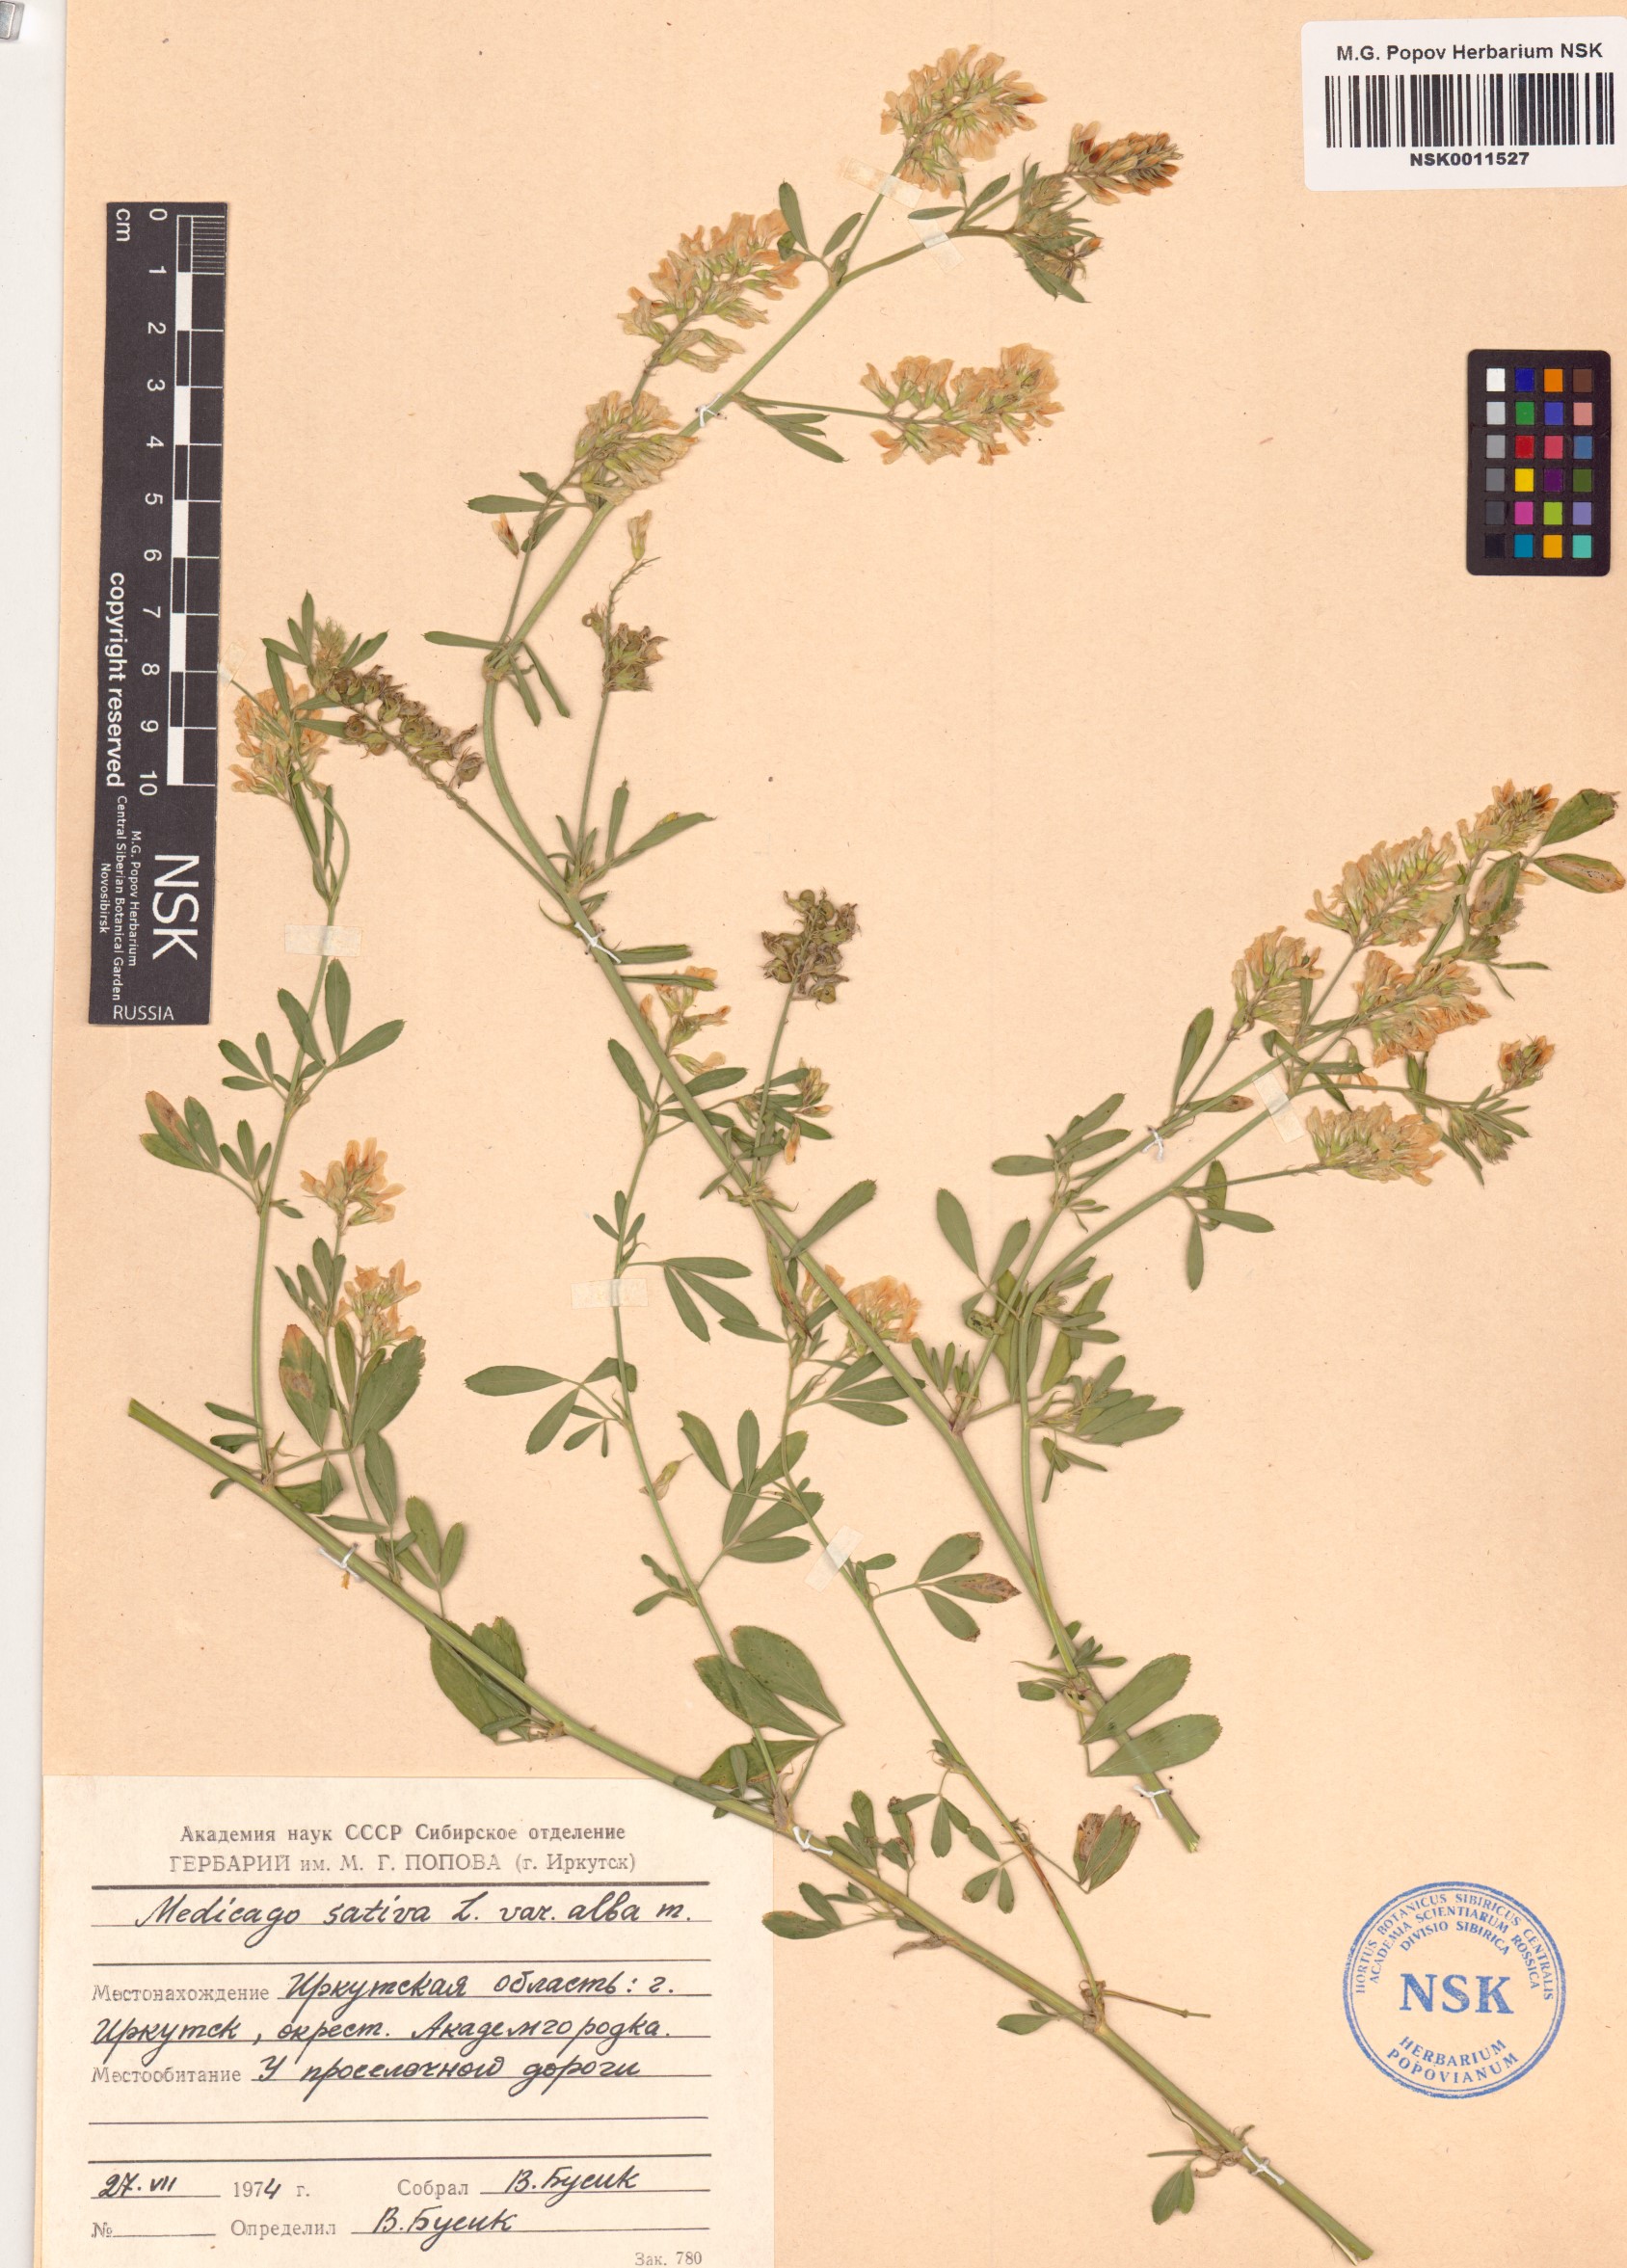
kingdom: Plantae
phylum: Tracheophyta
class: Magnoliopsida
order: Fabales
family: Fabaceae
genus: Medicago
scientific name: Medicago sativa
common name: Alfalfa
